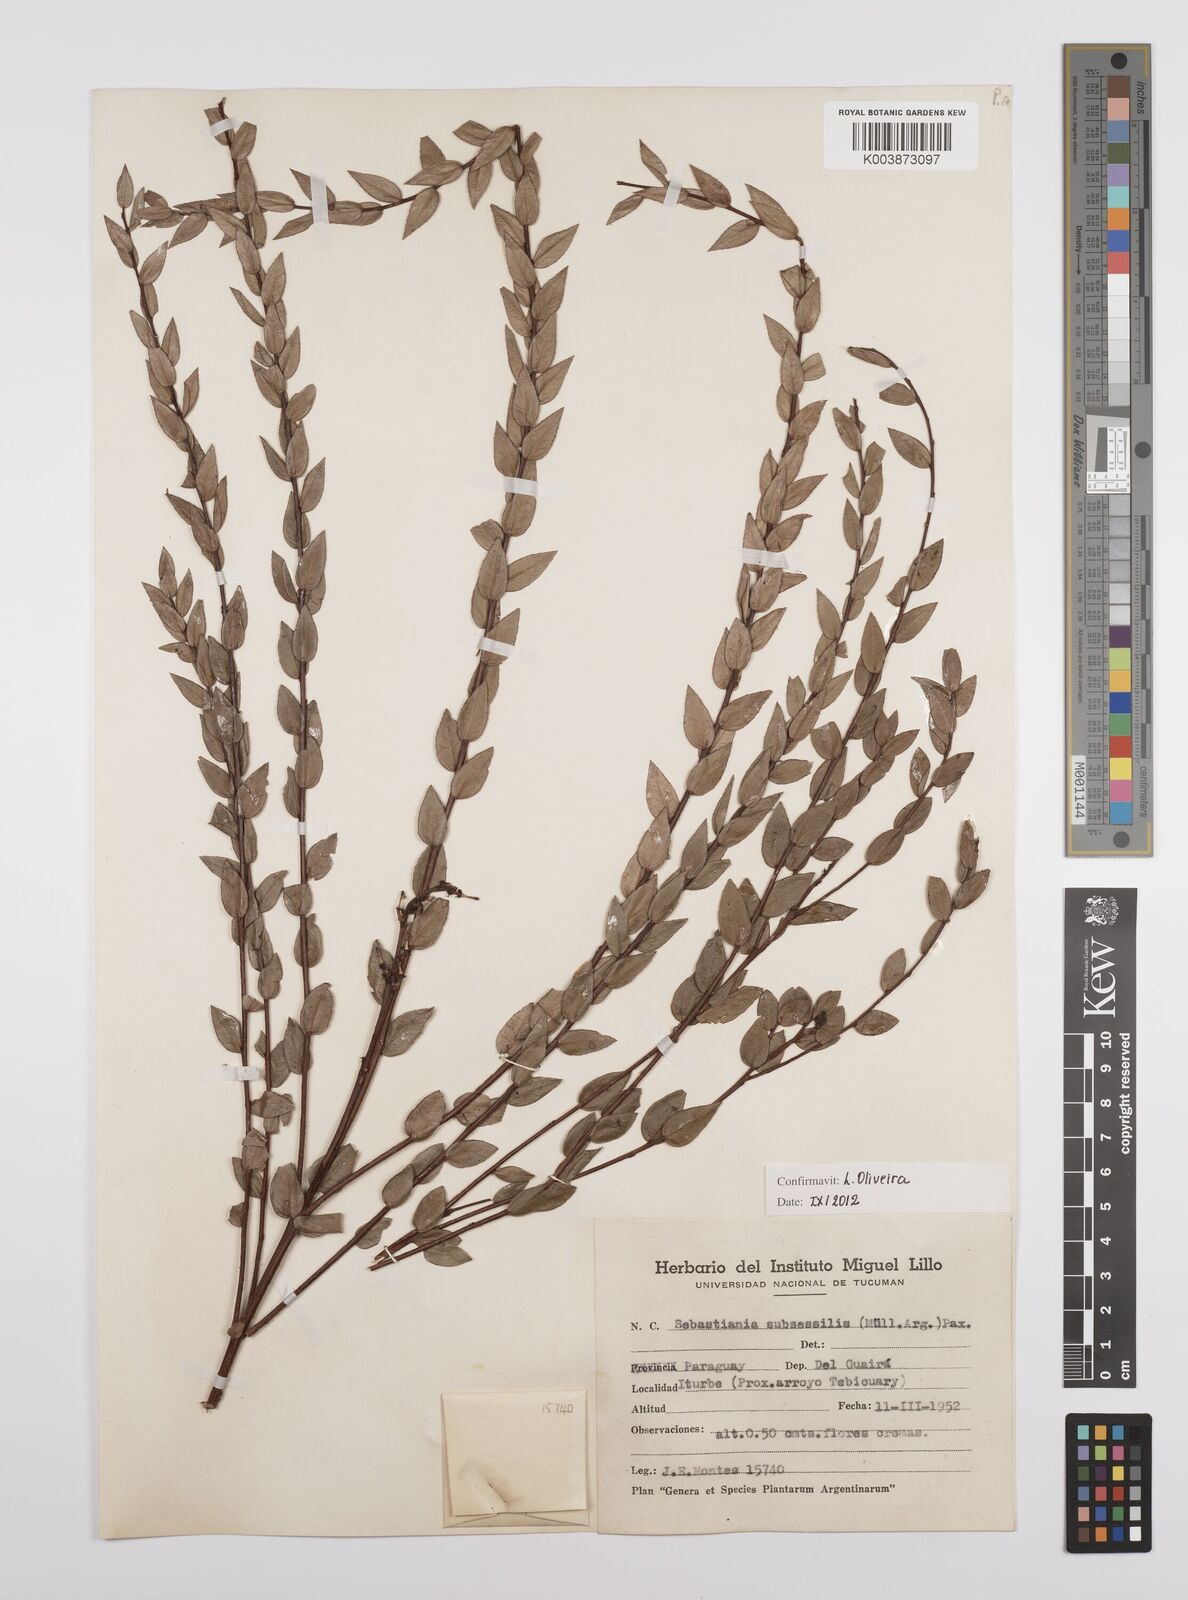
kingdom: Plantae
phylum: Tracheophyta
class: Magnoliopsida
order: Malpighiales
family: Euphorbiaceae
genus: Sebastiania
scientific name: Sebastiania subsessilis
